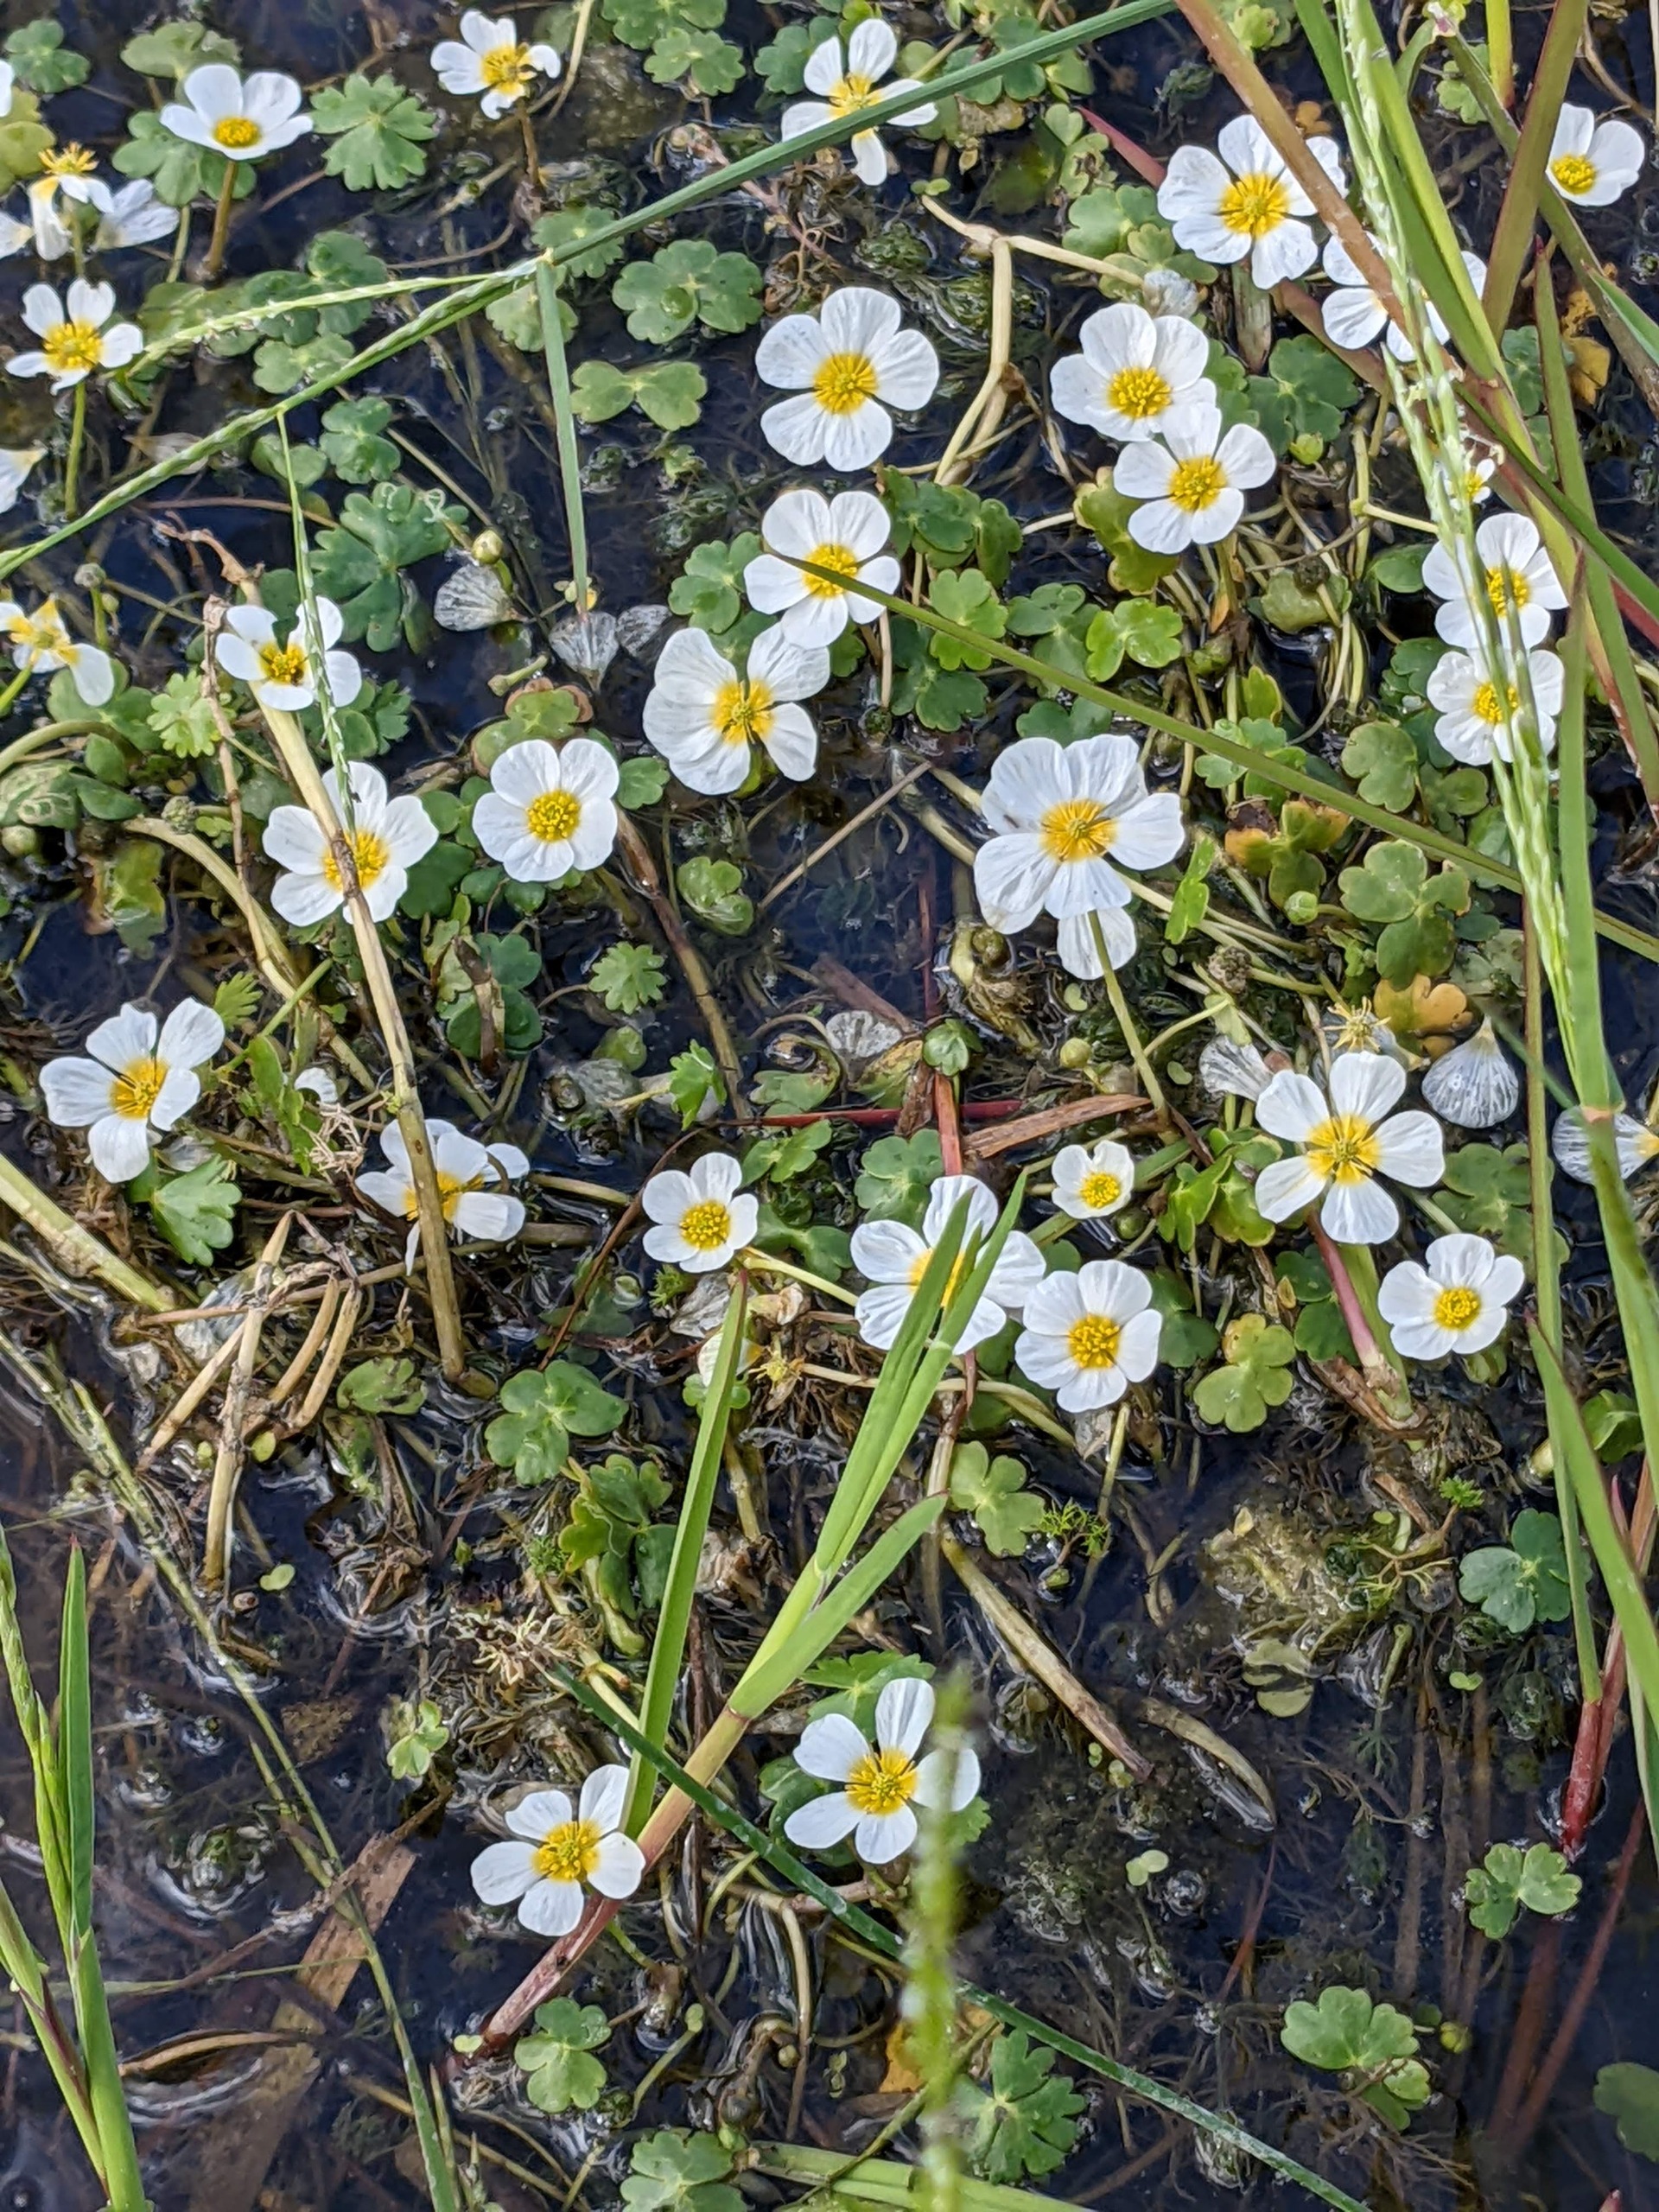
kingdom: Plantae
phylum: Tracheophyta
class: Magnoliopsida
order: Ranunculales
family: Ranunculaceae
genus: Ranunculus
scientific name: Ranunculus peltatus
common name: Storblomstret vandranunkel
